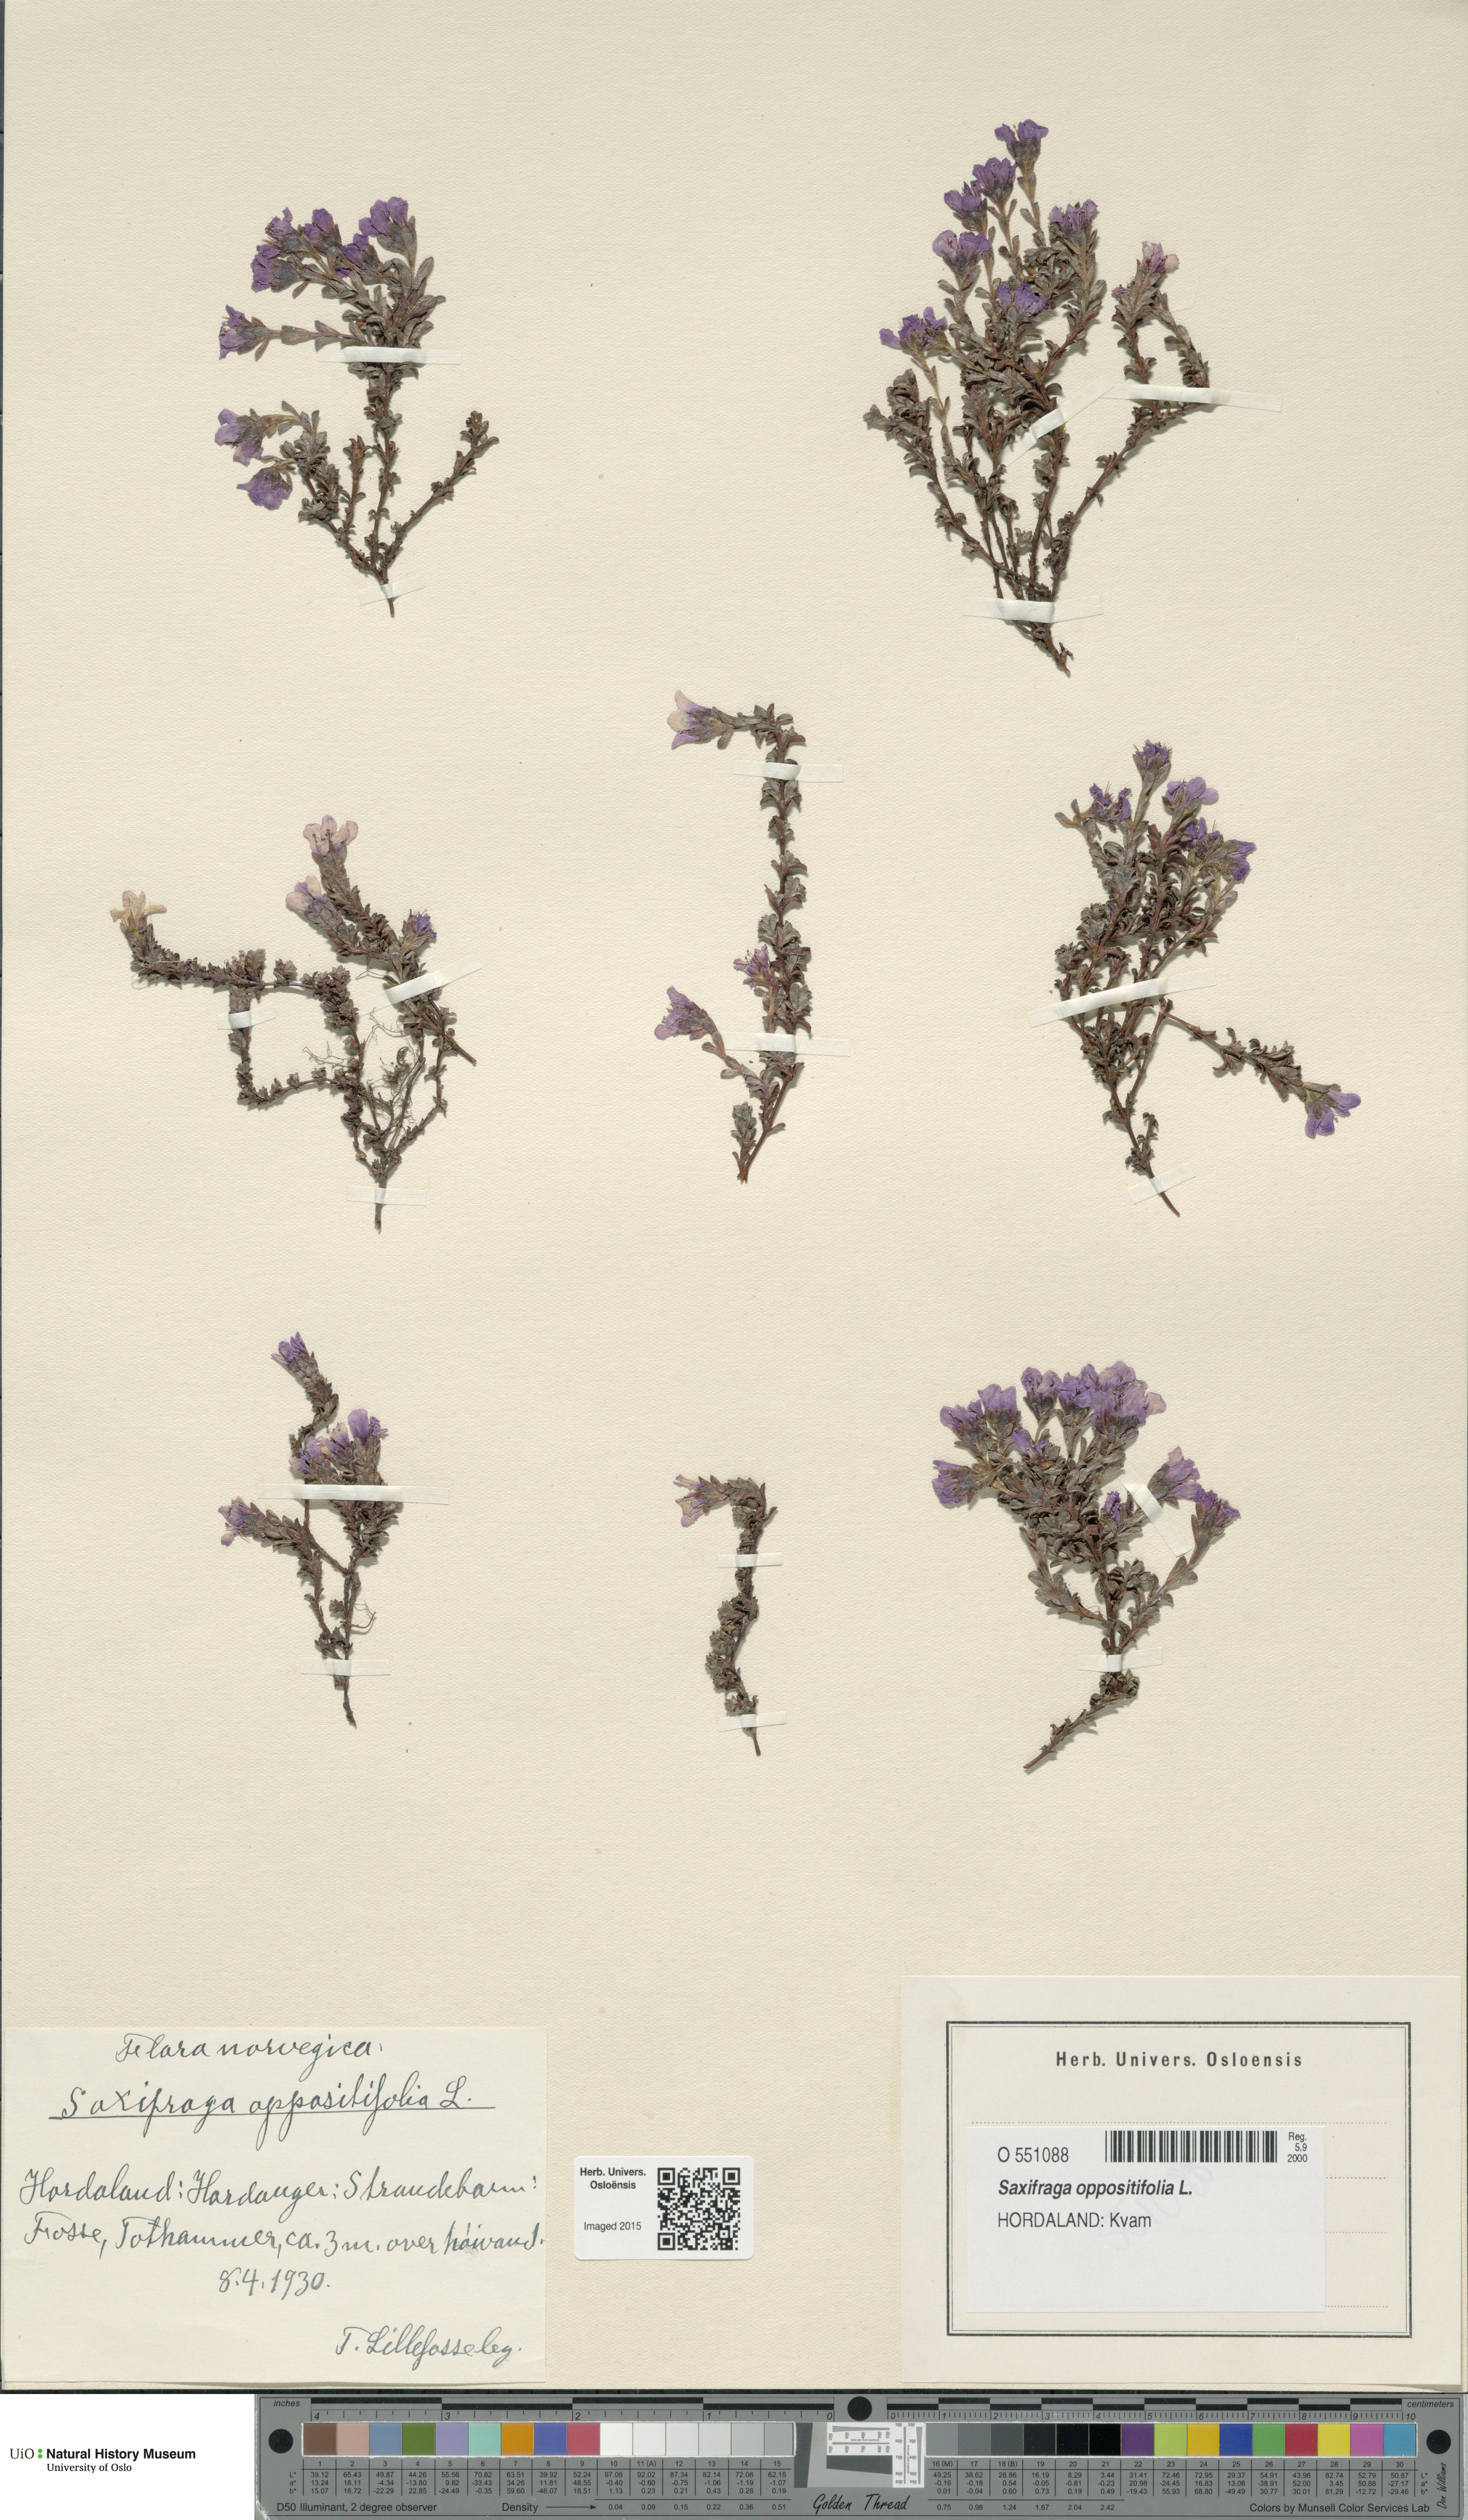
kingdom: Plantae
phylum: Tracheophyta
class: Magnoliopsida
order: Saxifragales
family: Saxifragaceae
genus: Saxifraga
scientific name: Saxifraga oppositifolia
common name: Purple saxifrage
